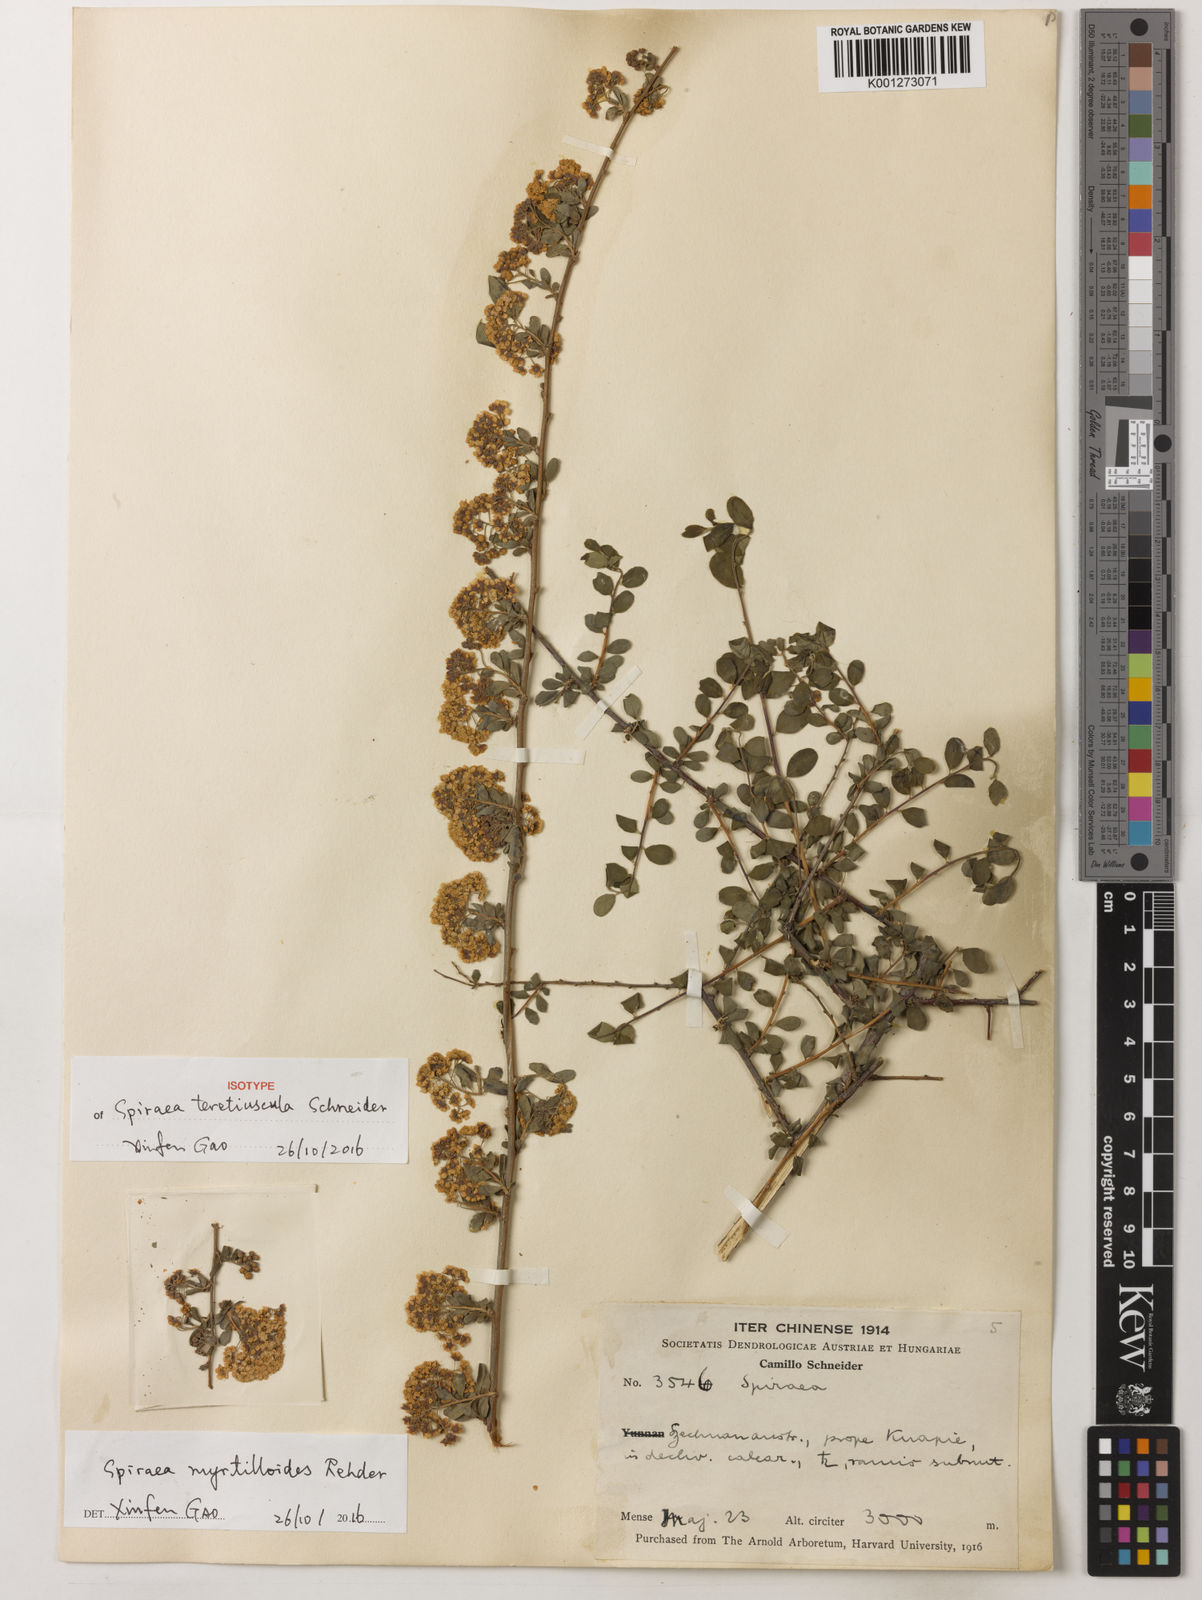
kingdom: Plantae
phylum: Tracheophyta
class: Magnoliopsida
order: Rosales
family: Rosaceae
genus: Spiraea
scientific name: Spiraea myrtilloides
